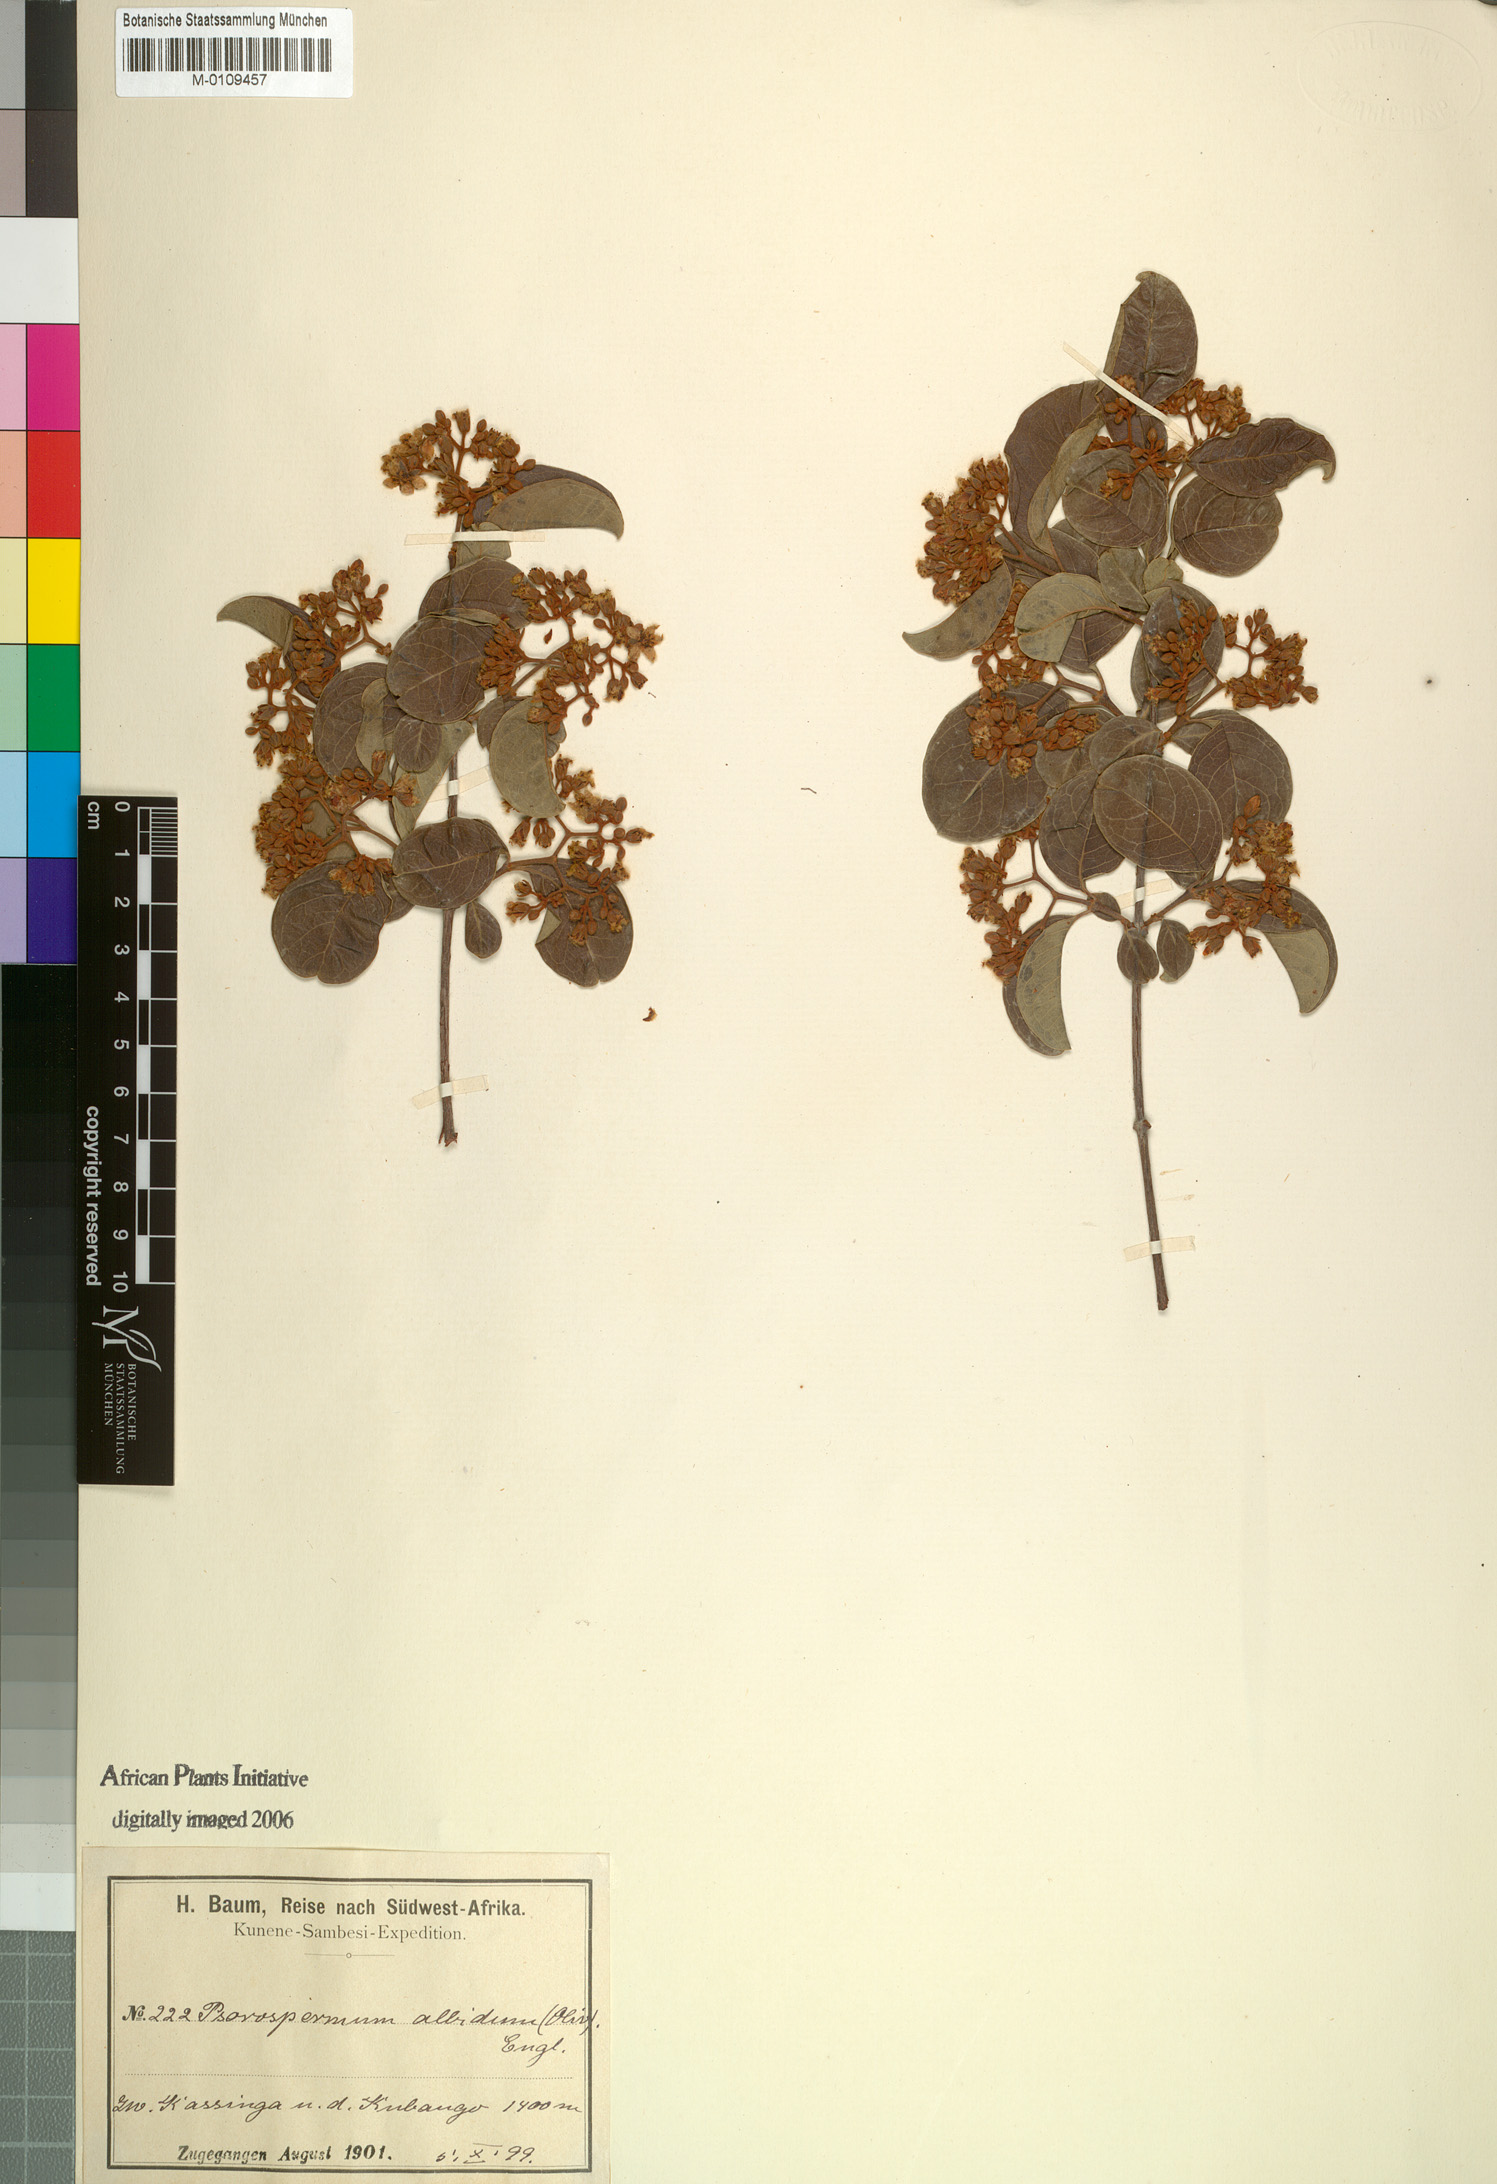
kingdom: Plantae
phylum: Tracheophyta
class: Magnoliopsida
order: Malpighiales
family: Hypericaceae
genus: Psorospermum
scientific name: Psorospermum baumii
